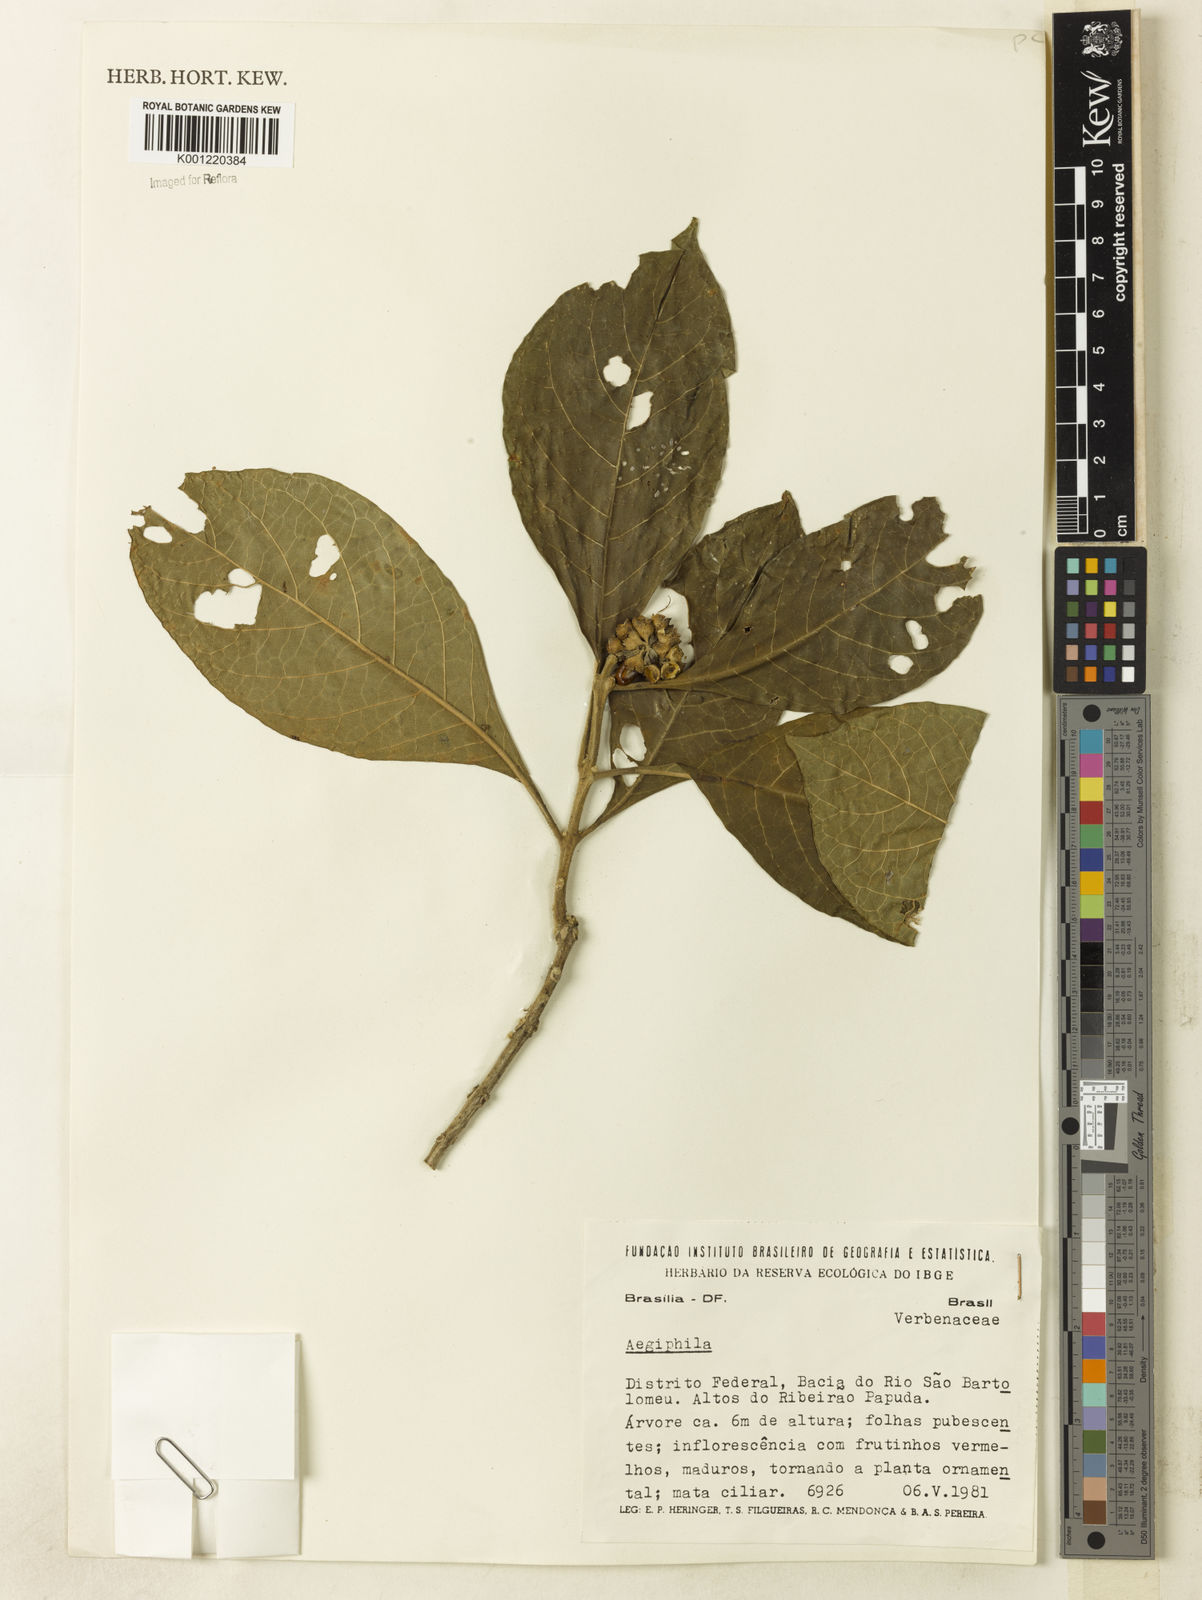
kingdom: Plantae
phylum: Tracheophyta
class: Magnoliopsida
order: Lamiales
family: Lamiaceae
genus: Aegiphila
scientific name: Aegiphila
